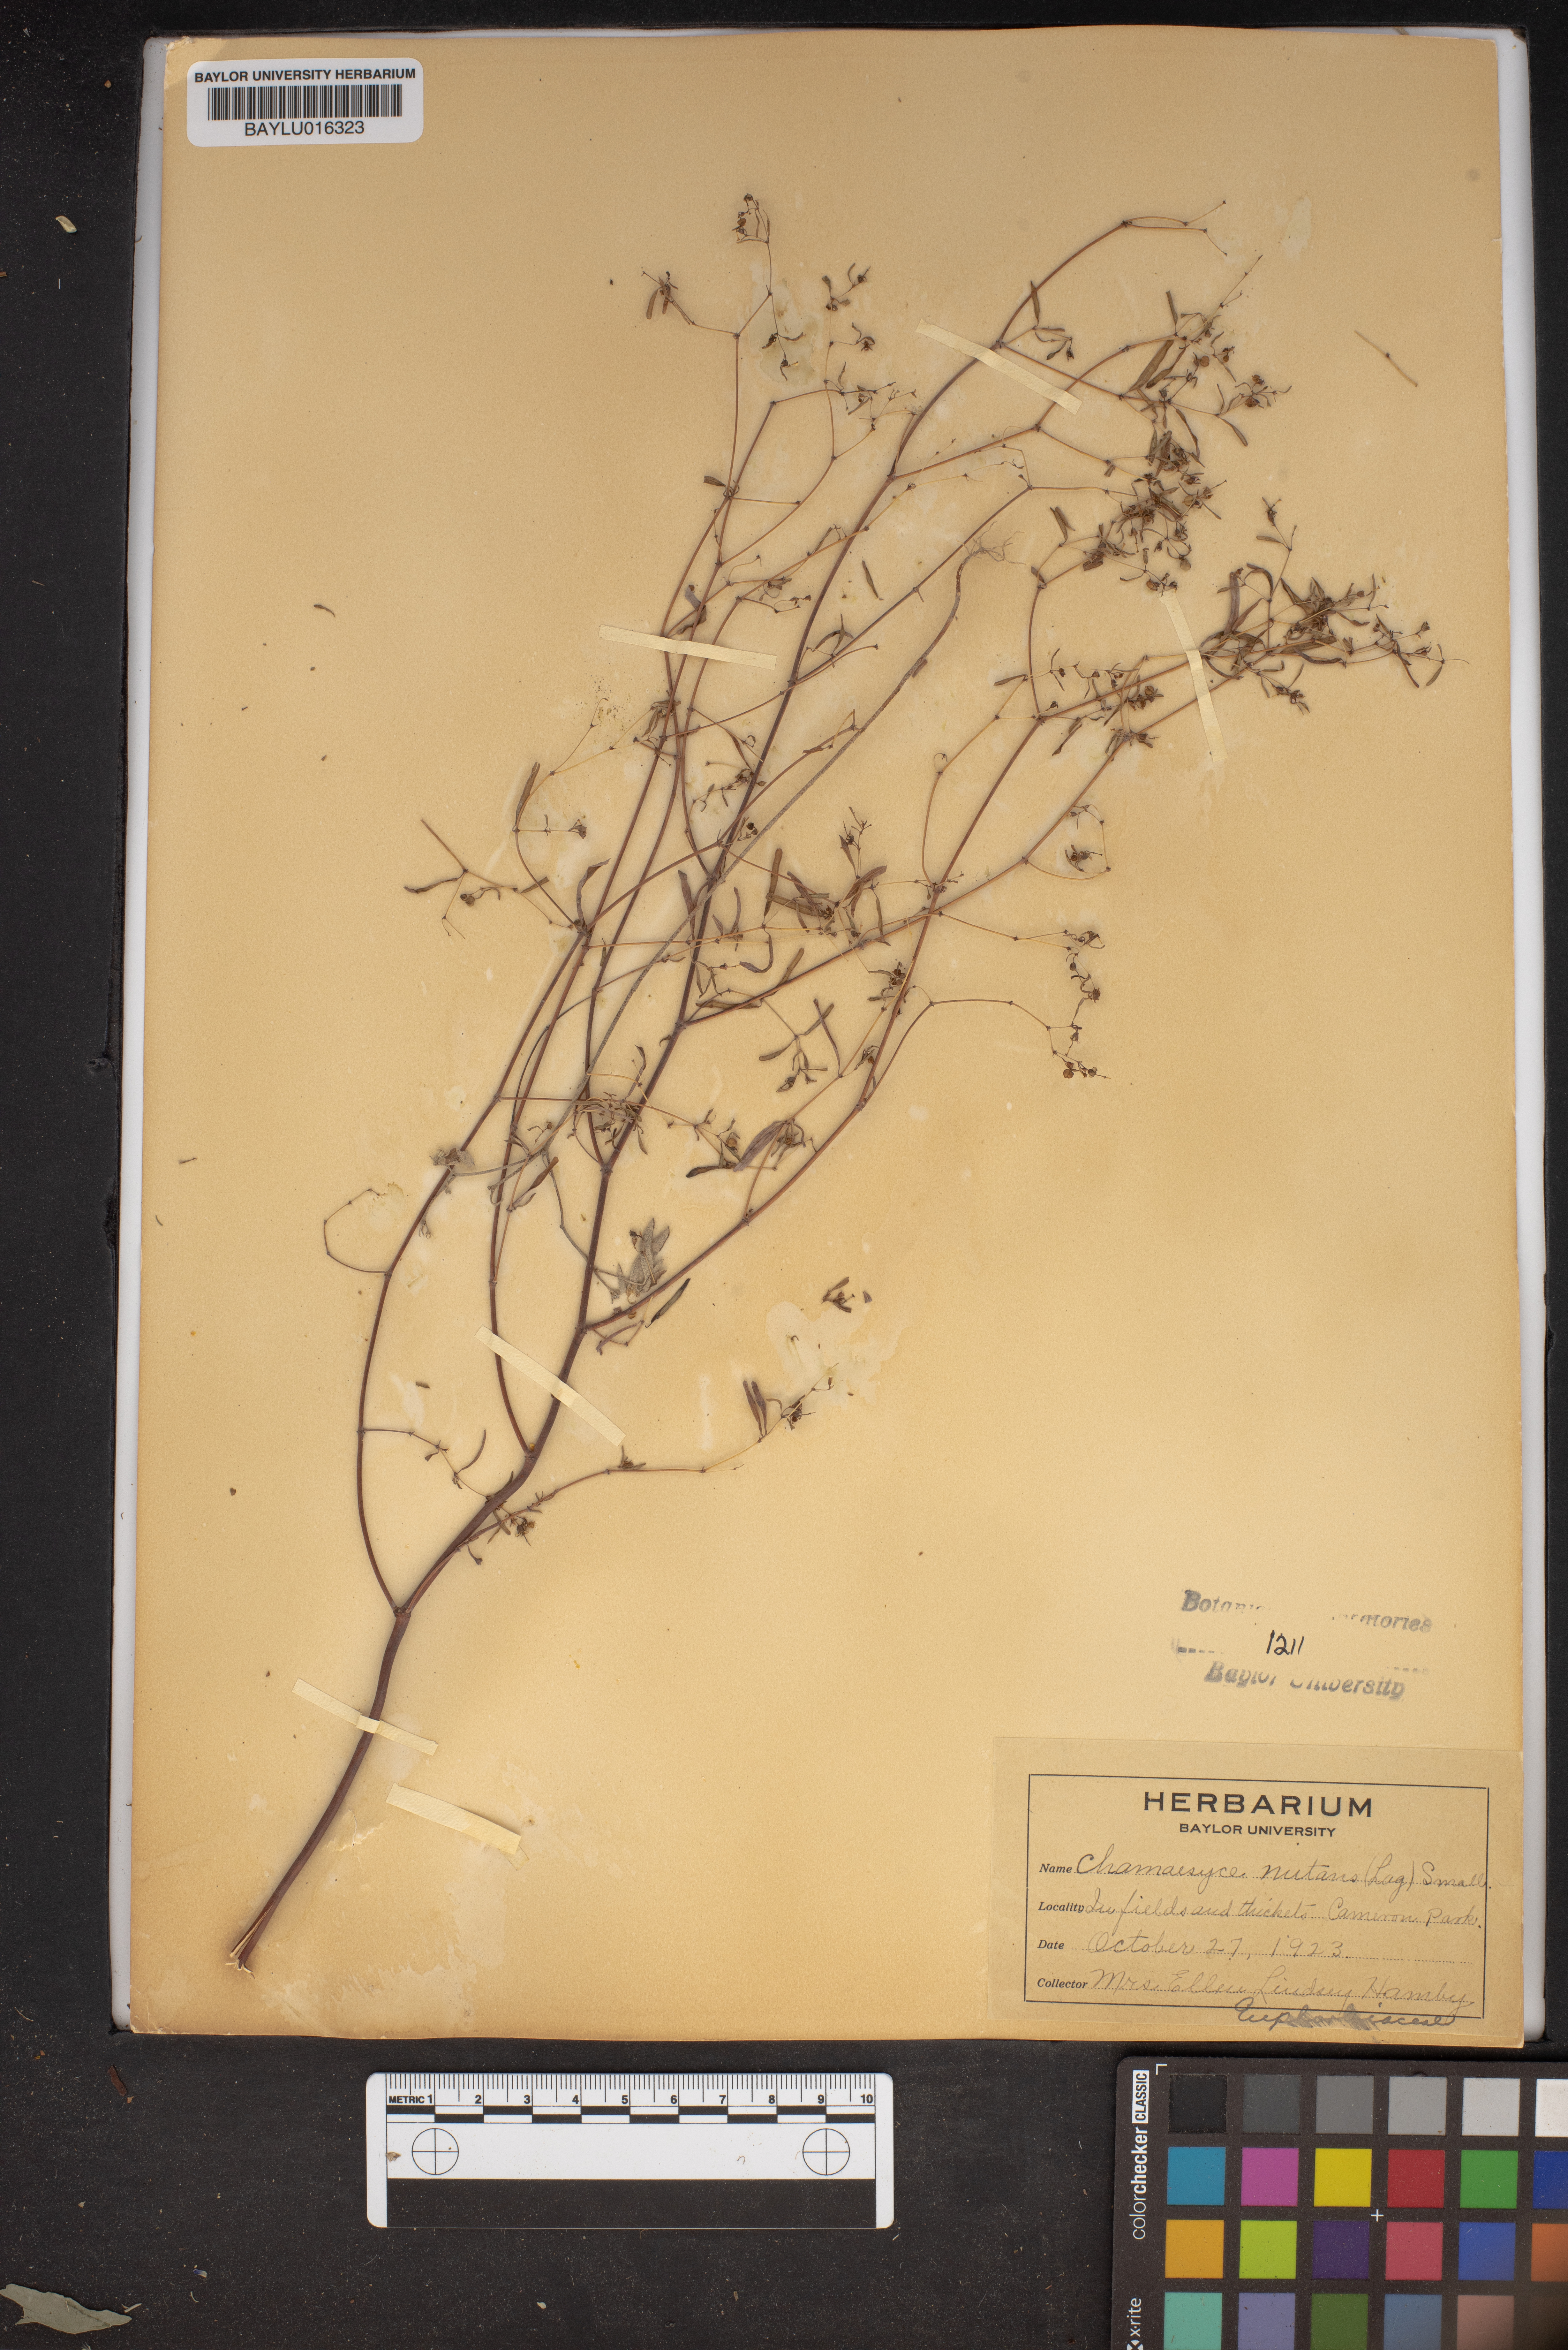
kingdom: Plantae
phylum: Tracheophyta
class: Magnoliopsida
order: Malpighiales
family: Euphorbiaceae
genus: Euphorbia
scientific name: Euphorbia nutans
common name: Eyebane
